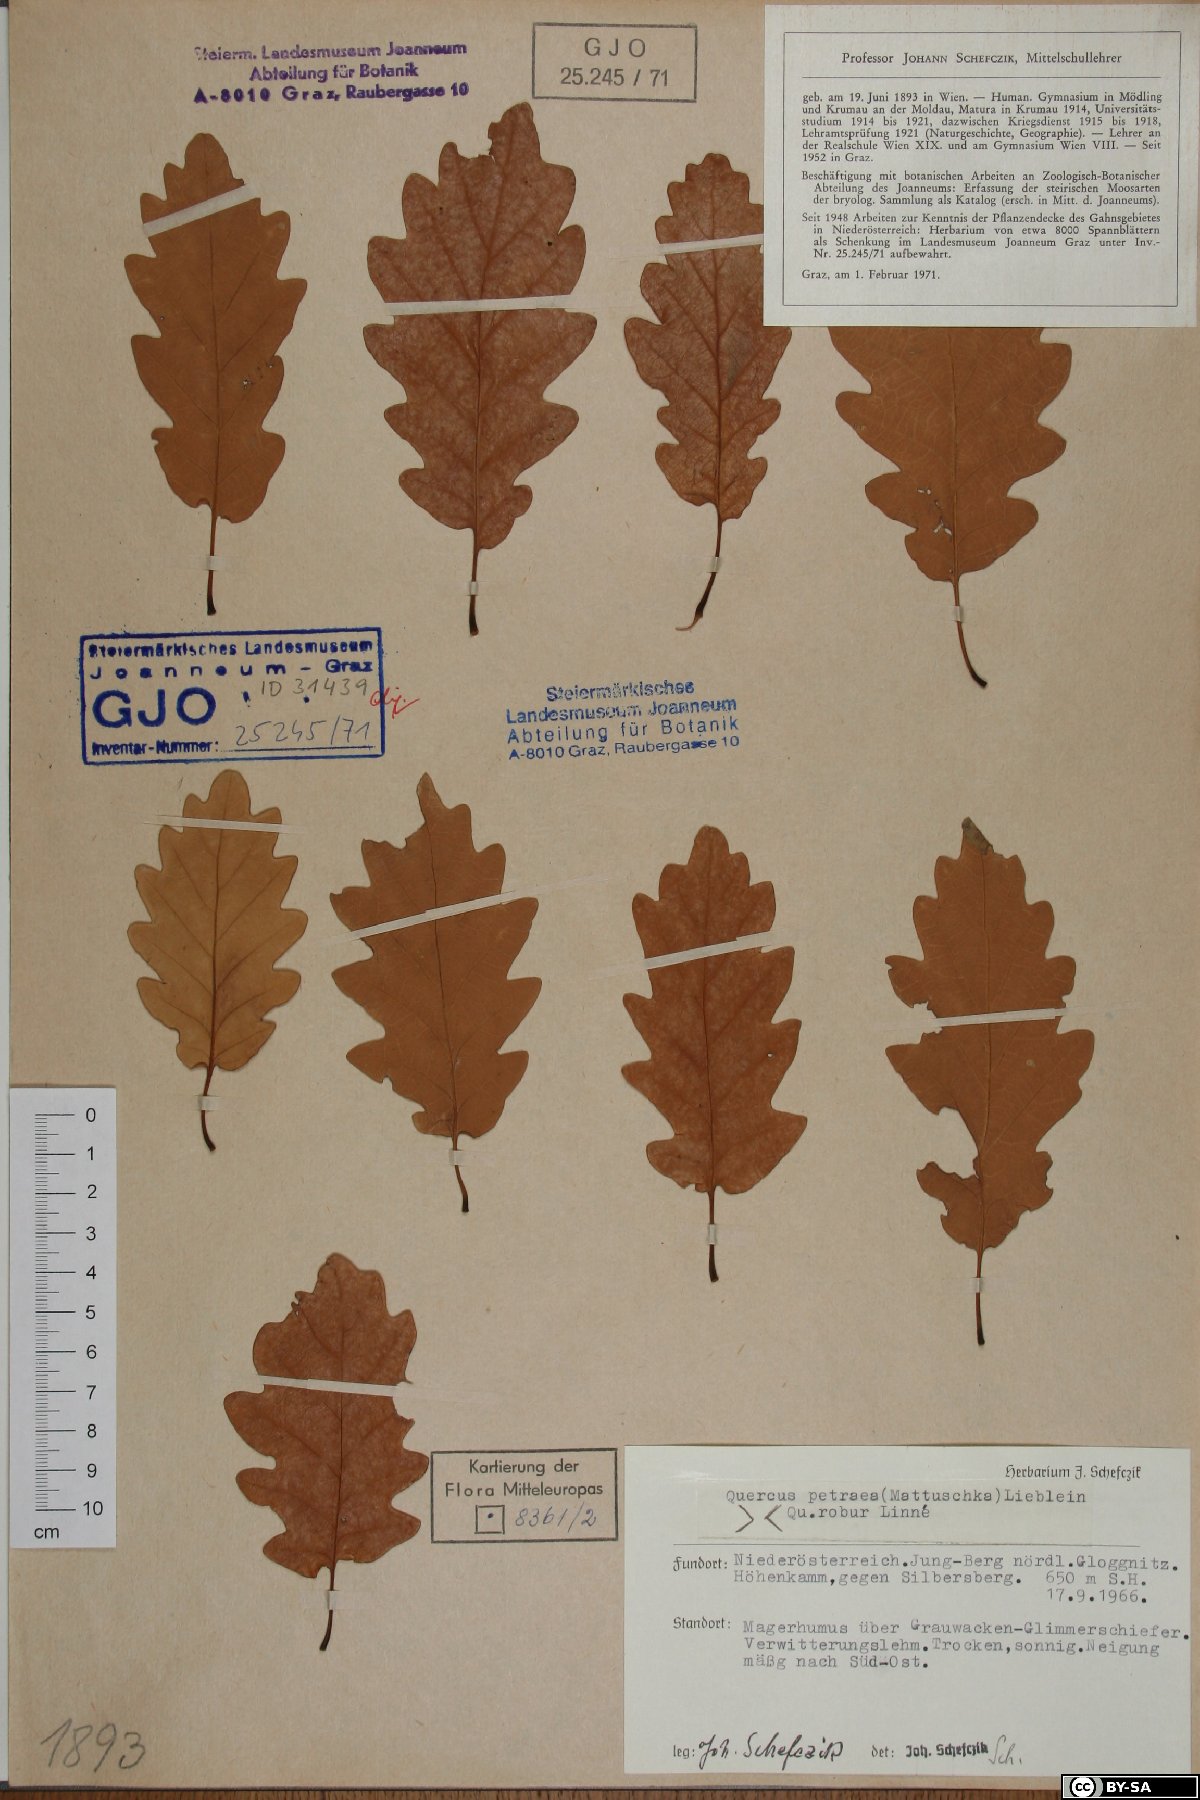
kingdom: Plantae
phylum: Tracheophyta
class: Magnoliopsida
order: Fagales
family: Fagaceae
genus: Quercus
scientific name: Quercus petraea
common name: Sessile oak
